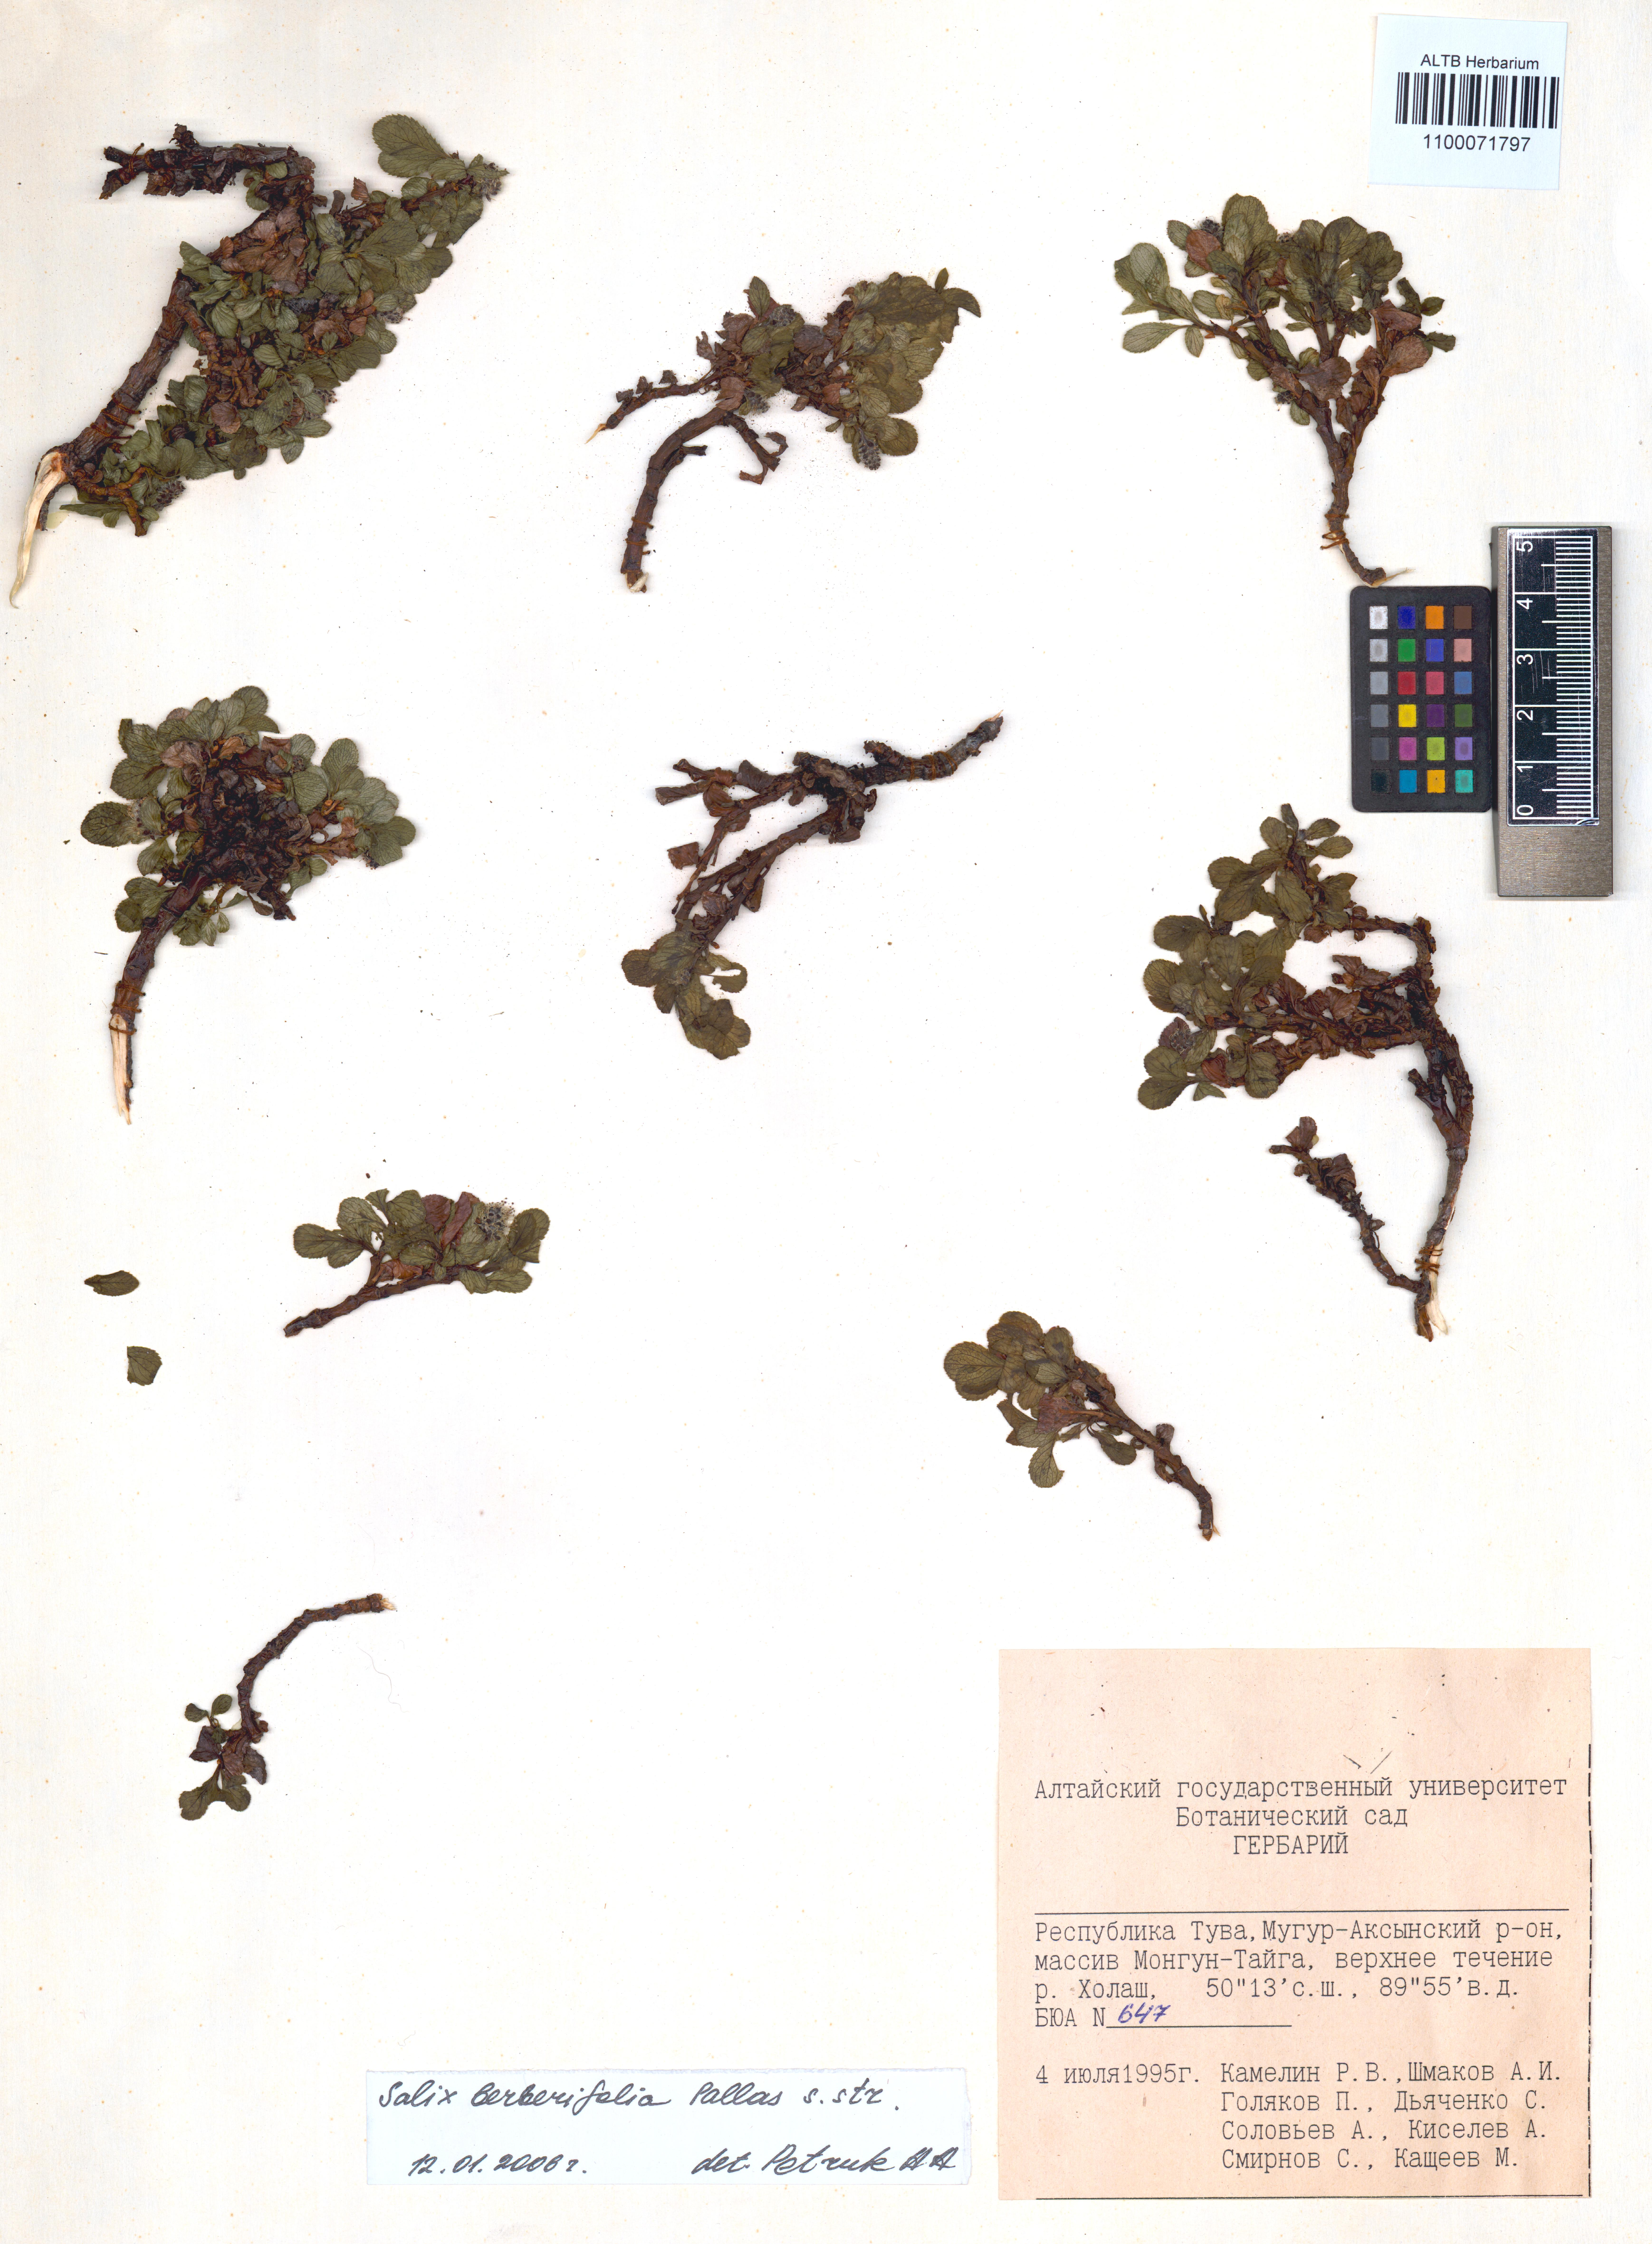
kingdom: Plantae
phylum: Tracheophyta
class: Magnoliopsida
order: Malpighiales
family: Salicaceae
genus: Salix
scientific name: Salix berberifolia
